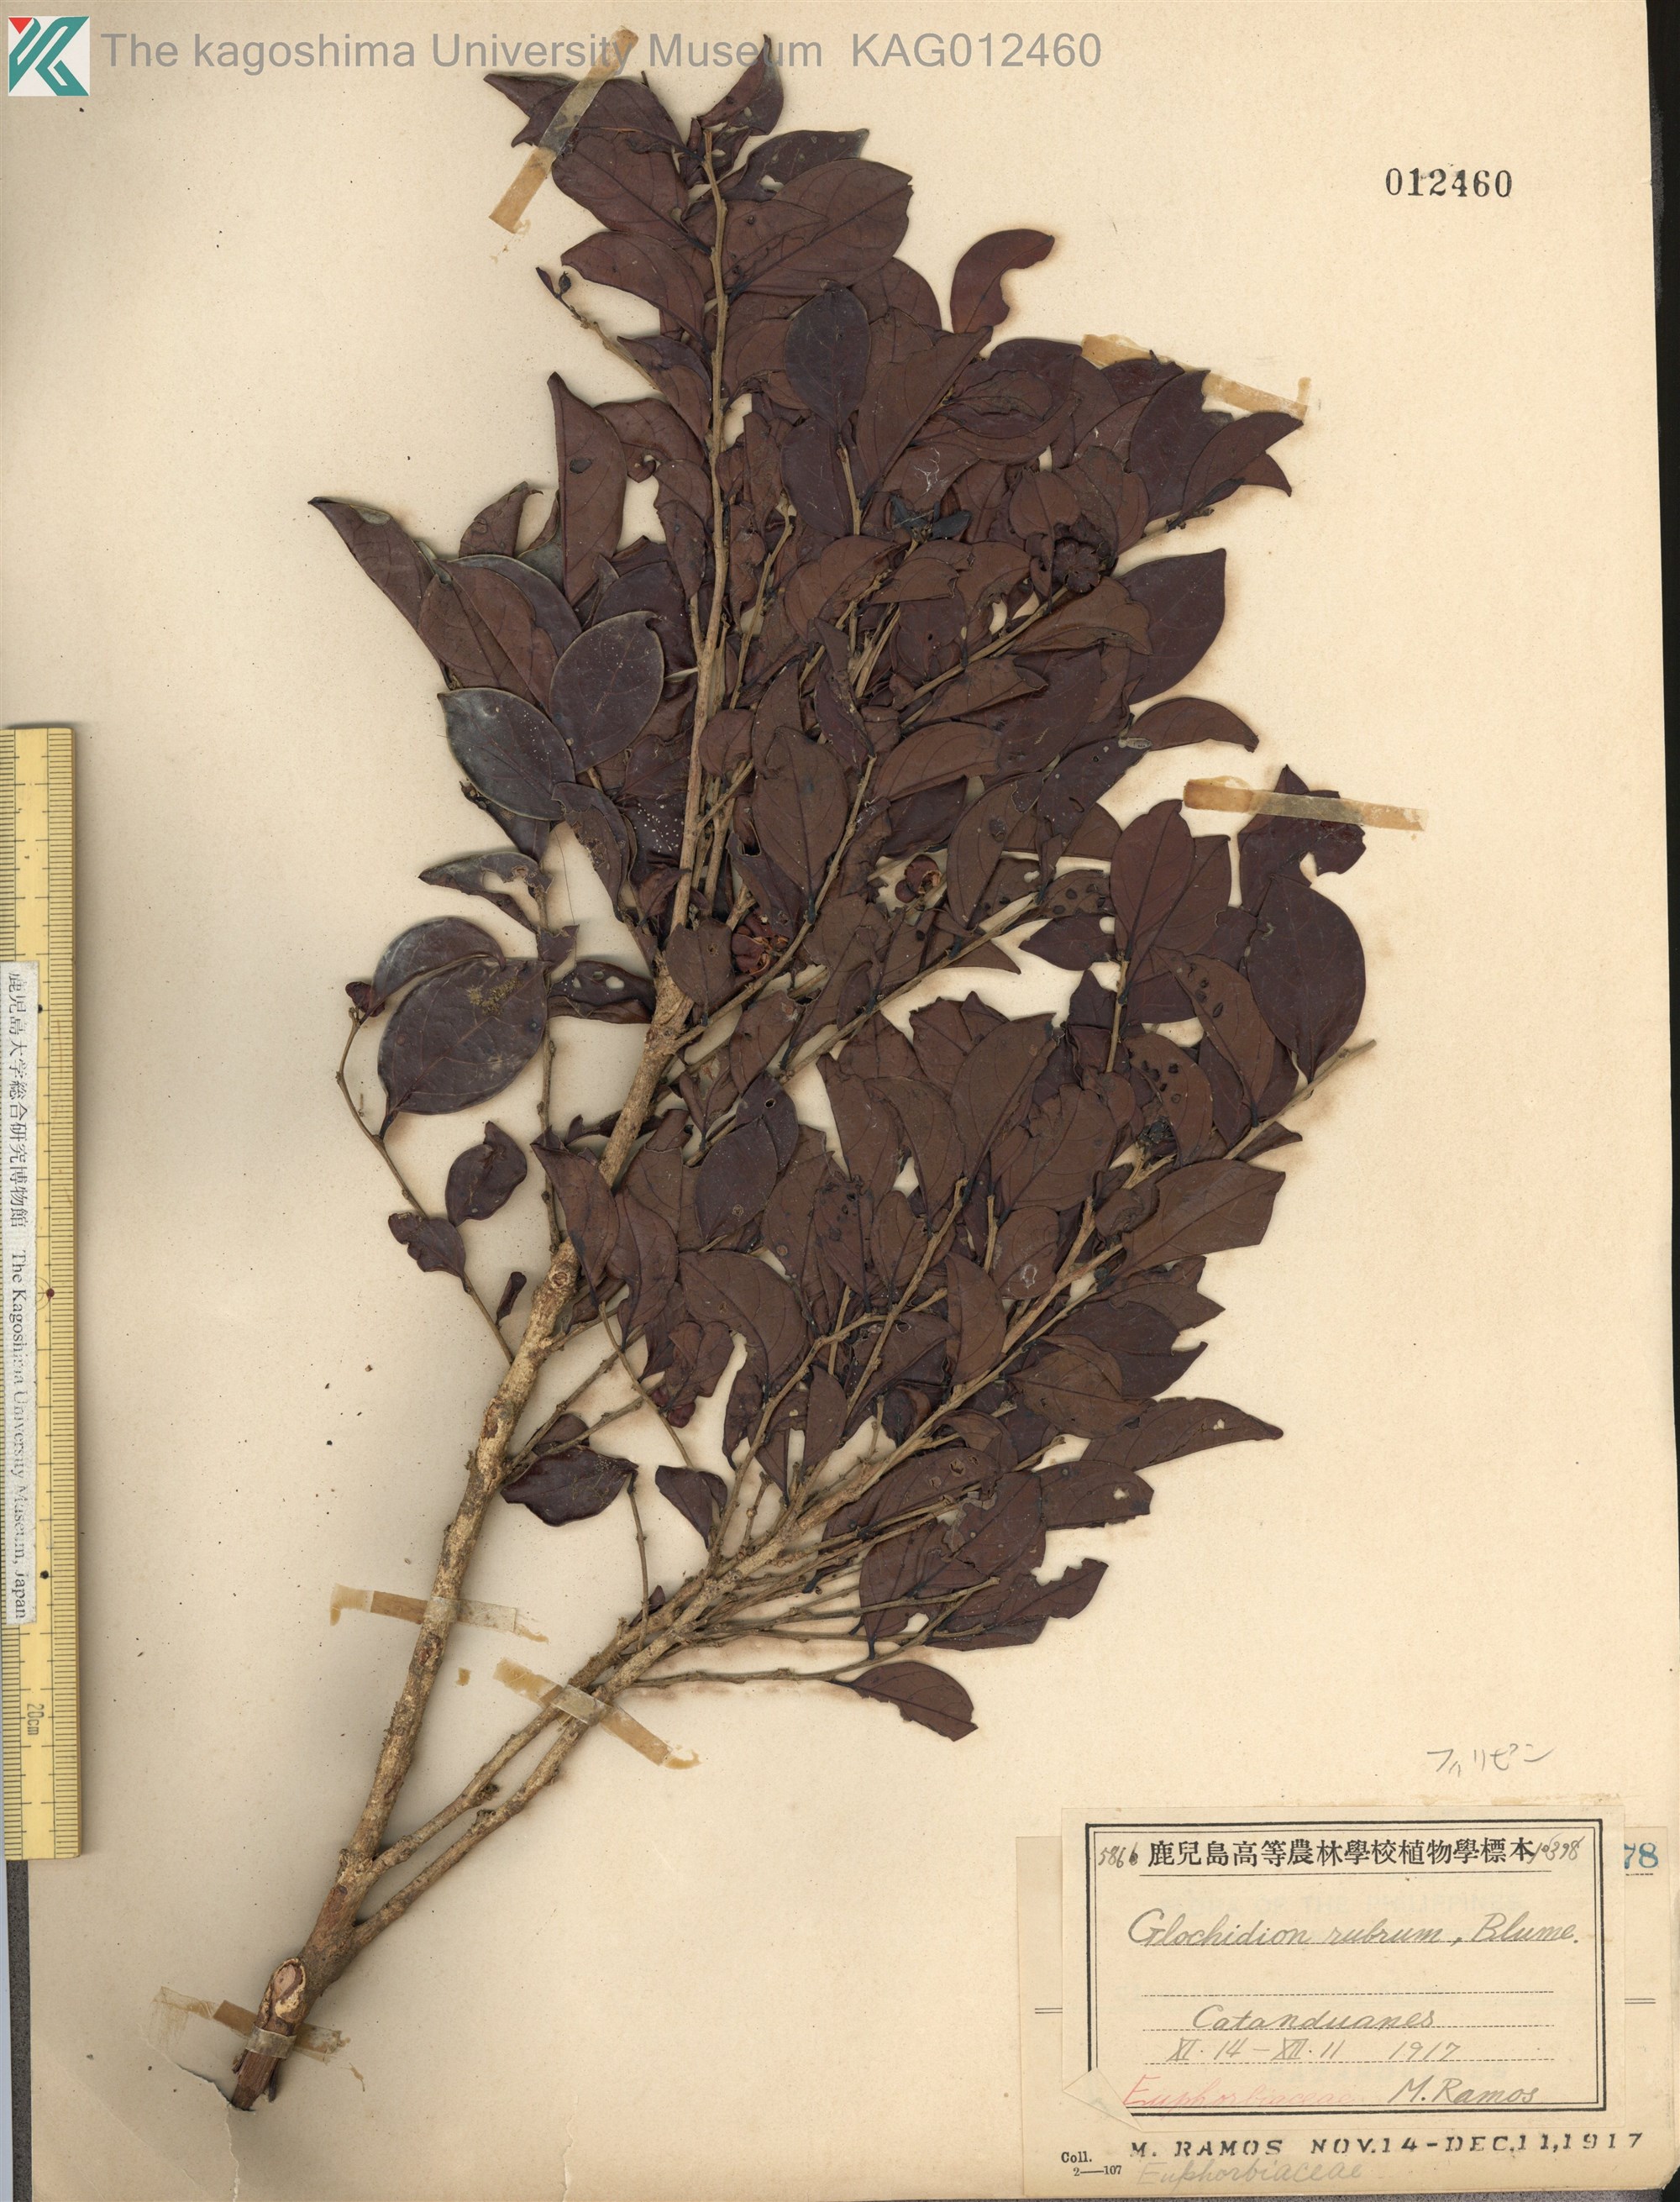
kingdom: Plantae
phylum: Tracheophyta
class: Magnoliopsida
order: Malpighiales
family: Phyllanthaceae
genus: Glochidion
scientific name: Glochidion rubrum
